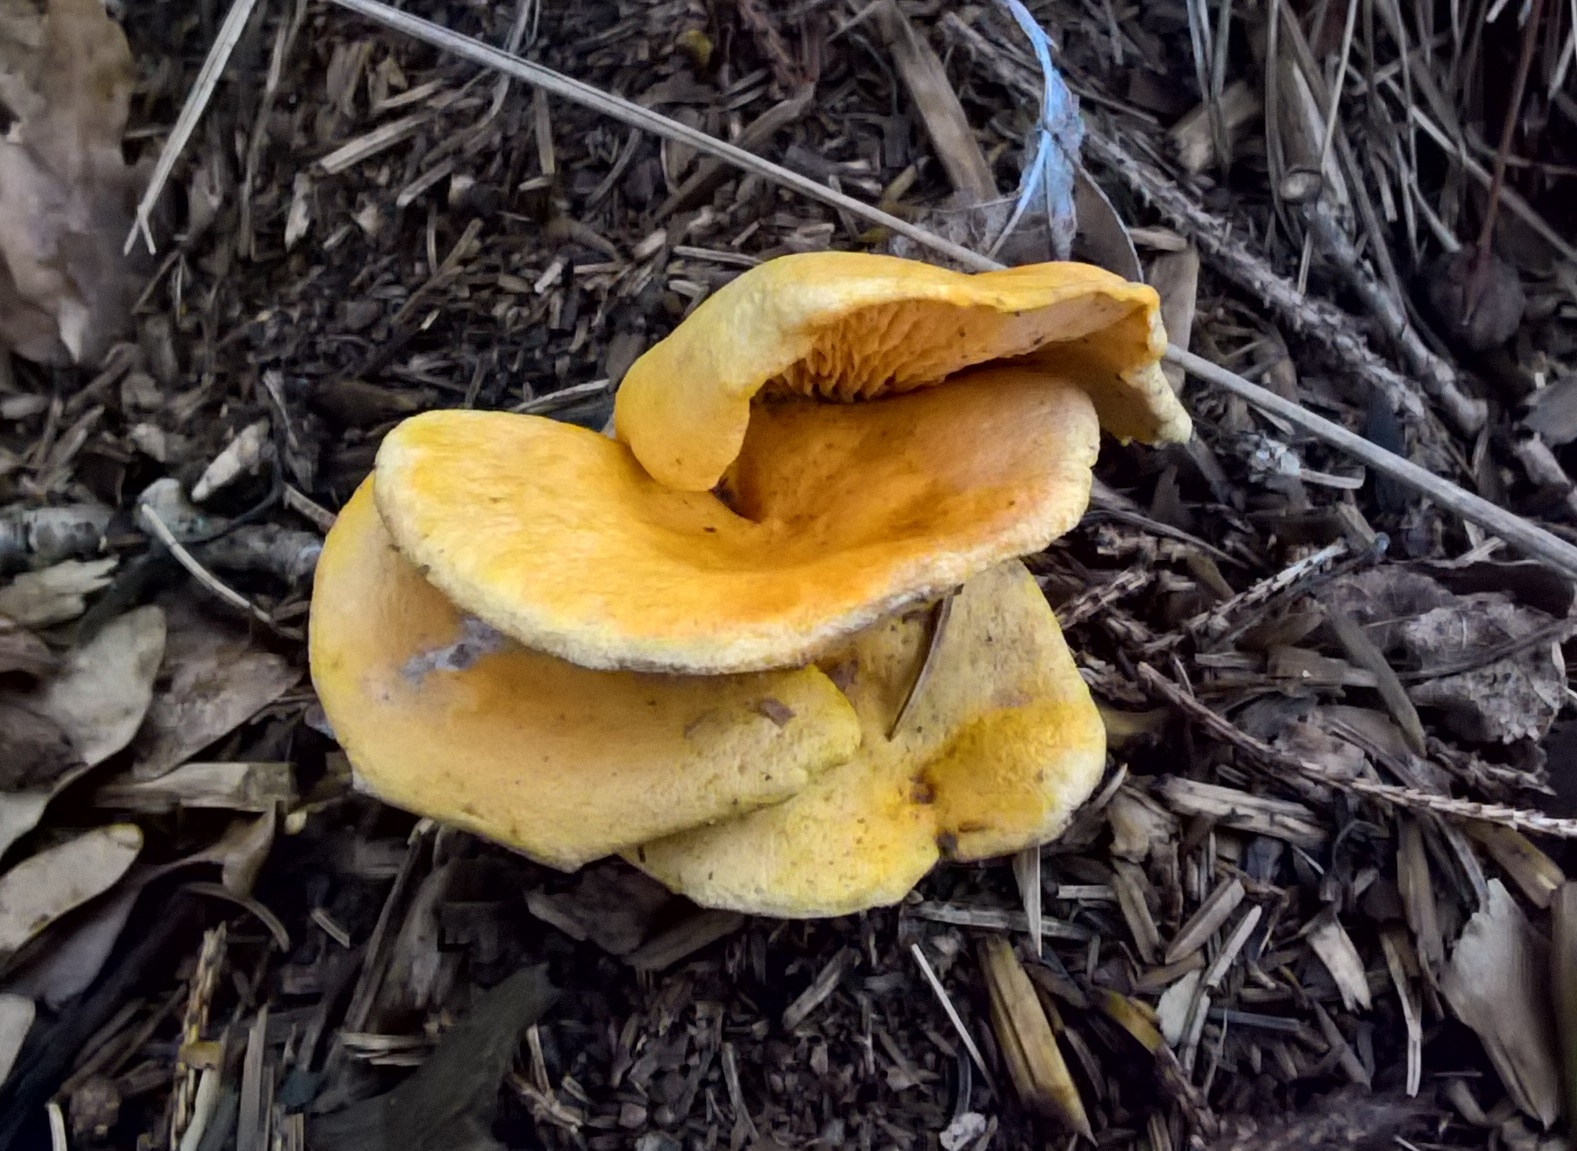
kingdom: Fungi
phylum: Basidiomycota
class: Agaricomycetes
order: Boletales
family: Hygrophoropsidaceae
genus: Hygrophoropsis
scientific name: Hygrophoropsis aurantiaca
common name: almindelig orangekantarel
